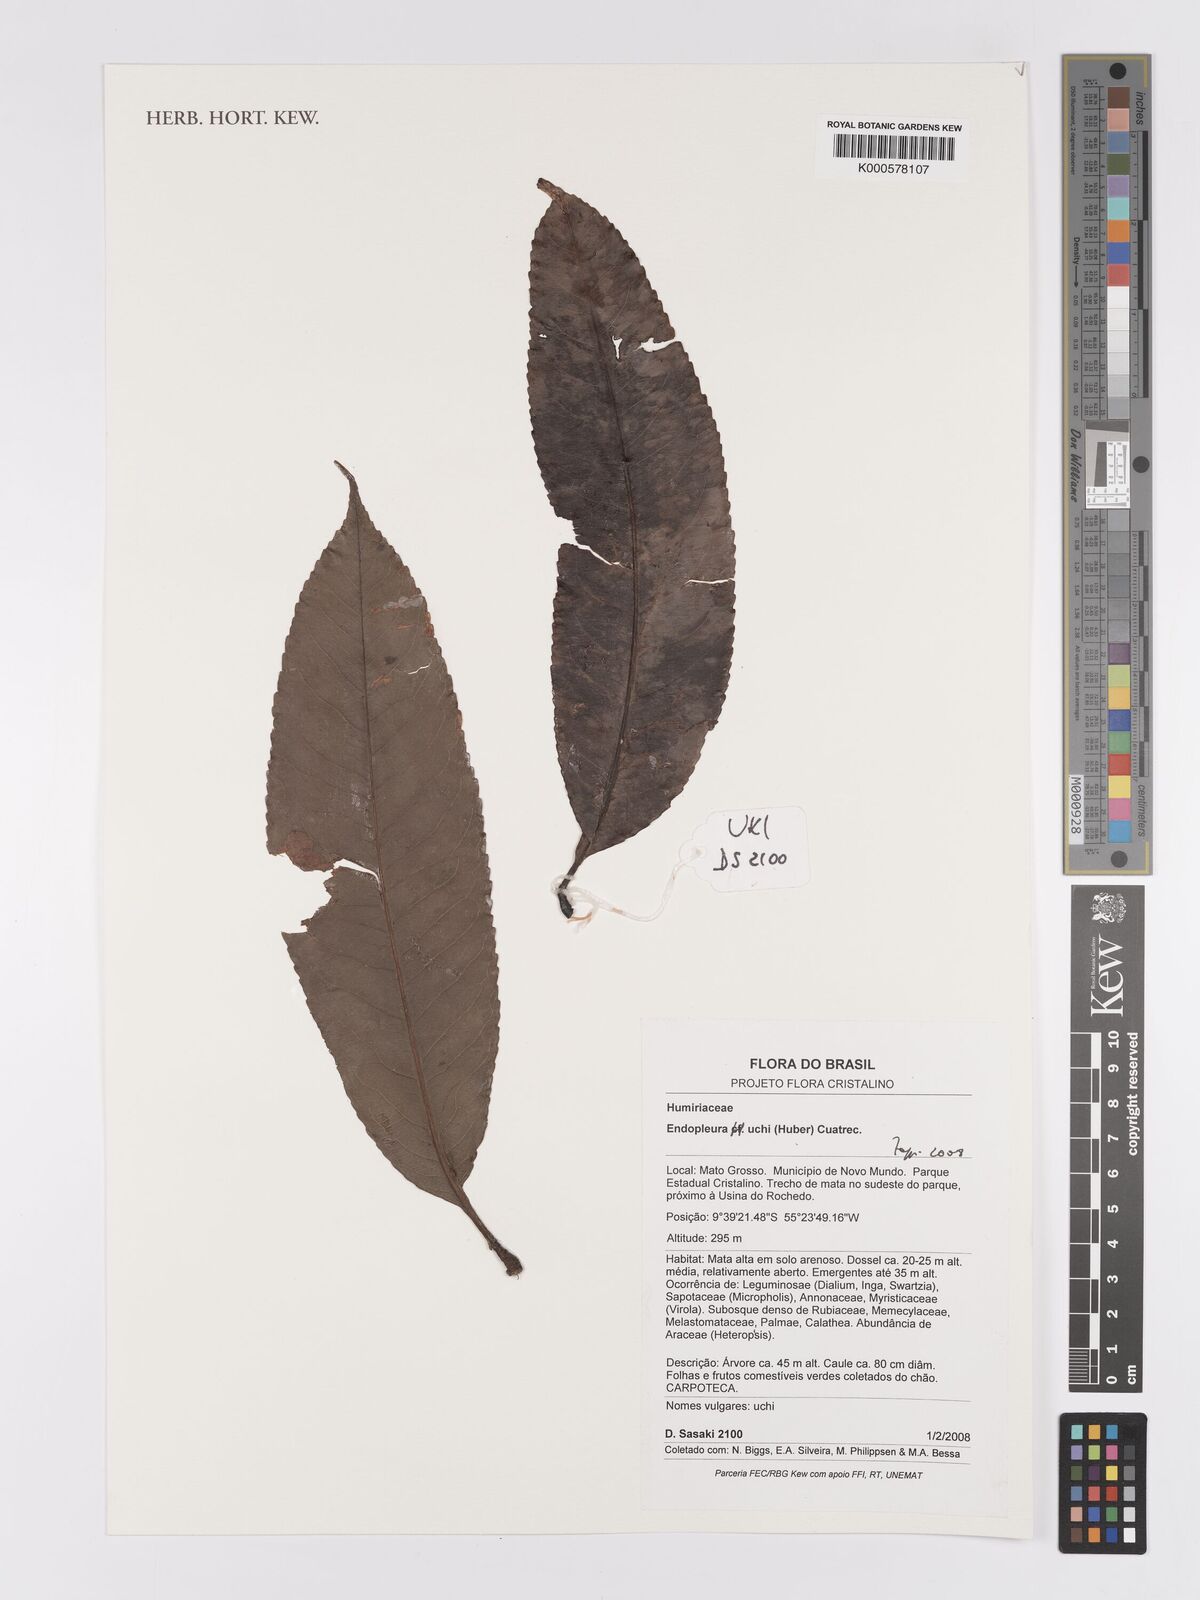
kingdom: Plantae
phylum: Tracheophyta
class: Magnoliopsida
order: Malpighiales
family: Humiriaceae
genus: Endopleura
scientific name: Endopleura uchi
